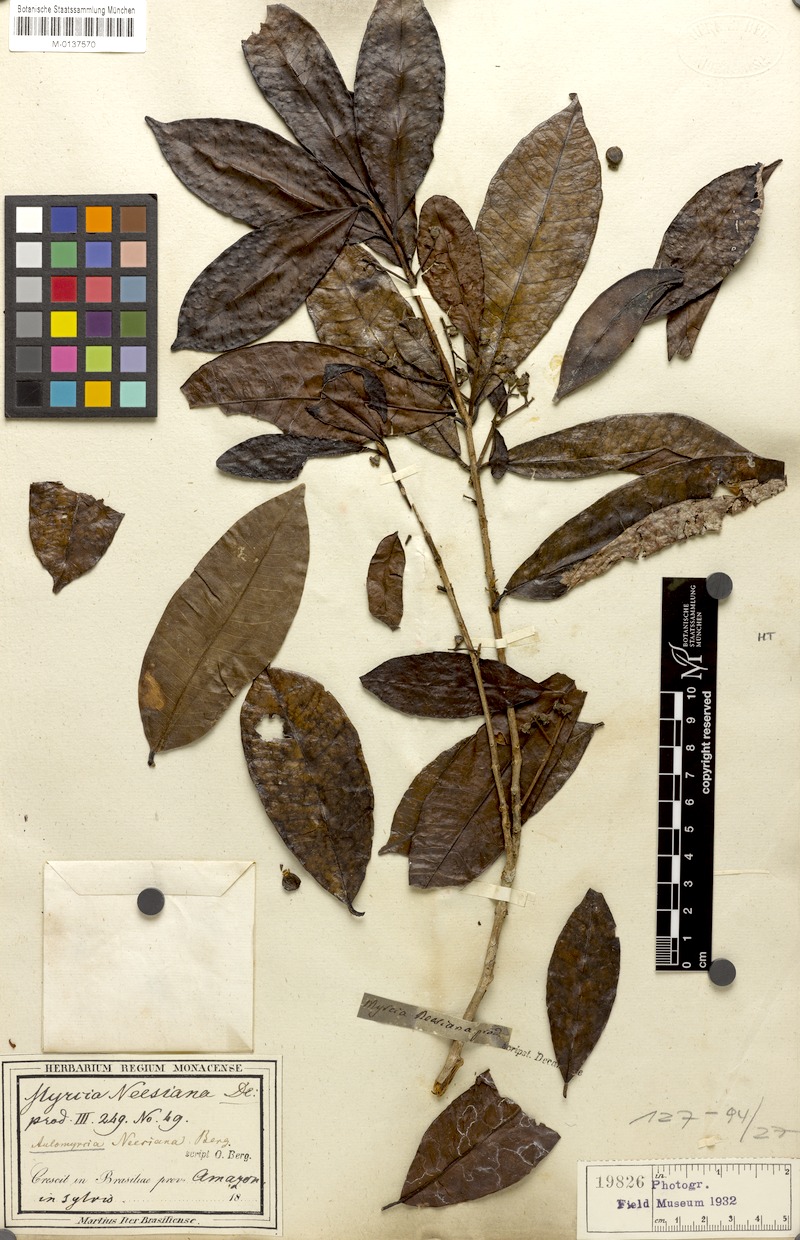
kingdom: Plantae
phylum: Tracheophyta
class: Magnoliopsida
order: Myrtales
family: Myrtaceae
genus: Myrcia
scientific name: Myrcia neesiana
